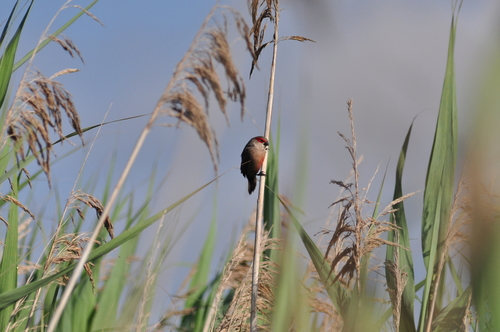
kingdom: Animalia
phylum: Chordata
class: Aves
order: Passeriformes
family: Estrildidae
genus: Estrilda
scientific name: Estrilda astrild
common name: Common waxbill
